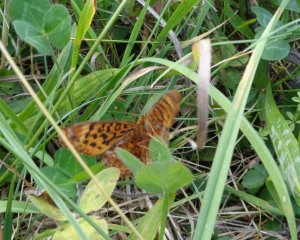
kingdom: Animalia
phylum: Arthropoda
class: Insecta
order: Lepidoptera
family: Nymphalidae
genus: Clossiana
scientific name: Clossiana toddi
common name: Meadow Fritillary
